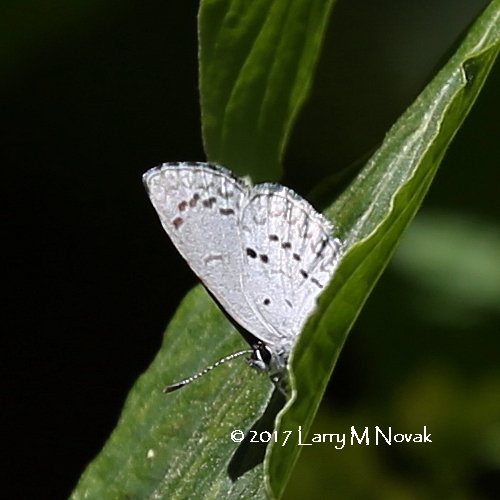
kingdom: Animalia
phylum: Arthropoda
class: Insecta
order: Lepidoptera
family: Lycaenidae
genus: Celastrina
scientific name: Celastrina lucia
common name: Northern Spring Azure
